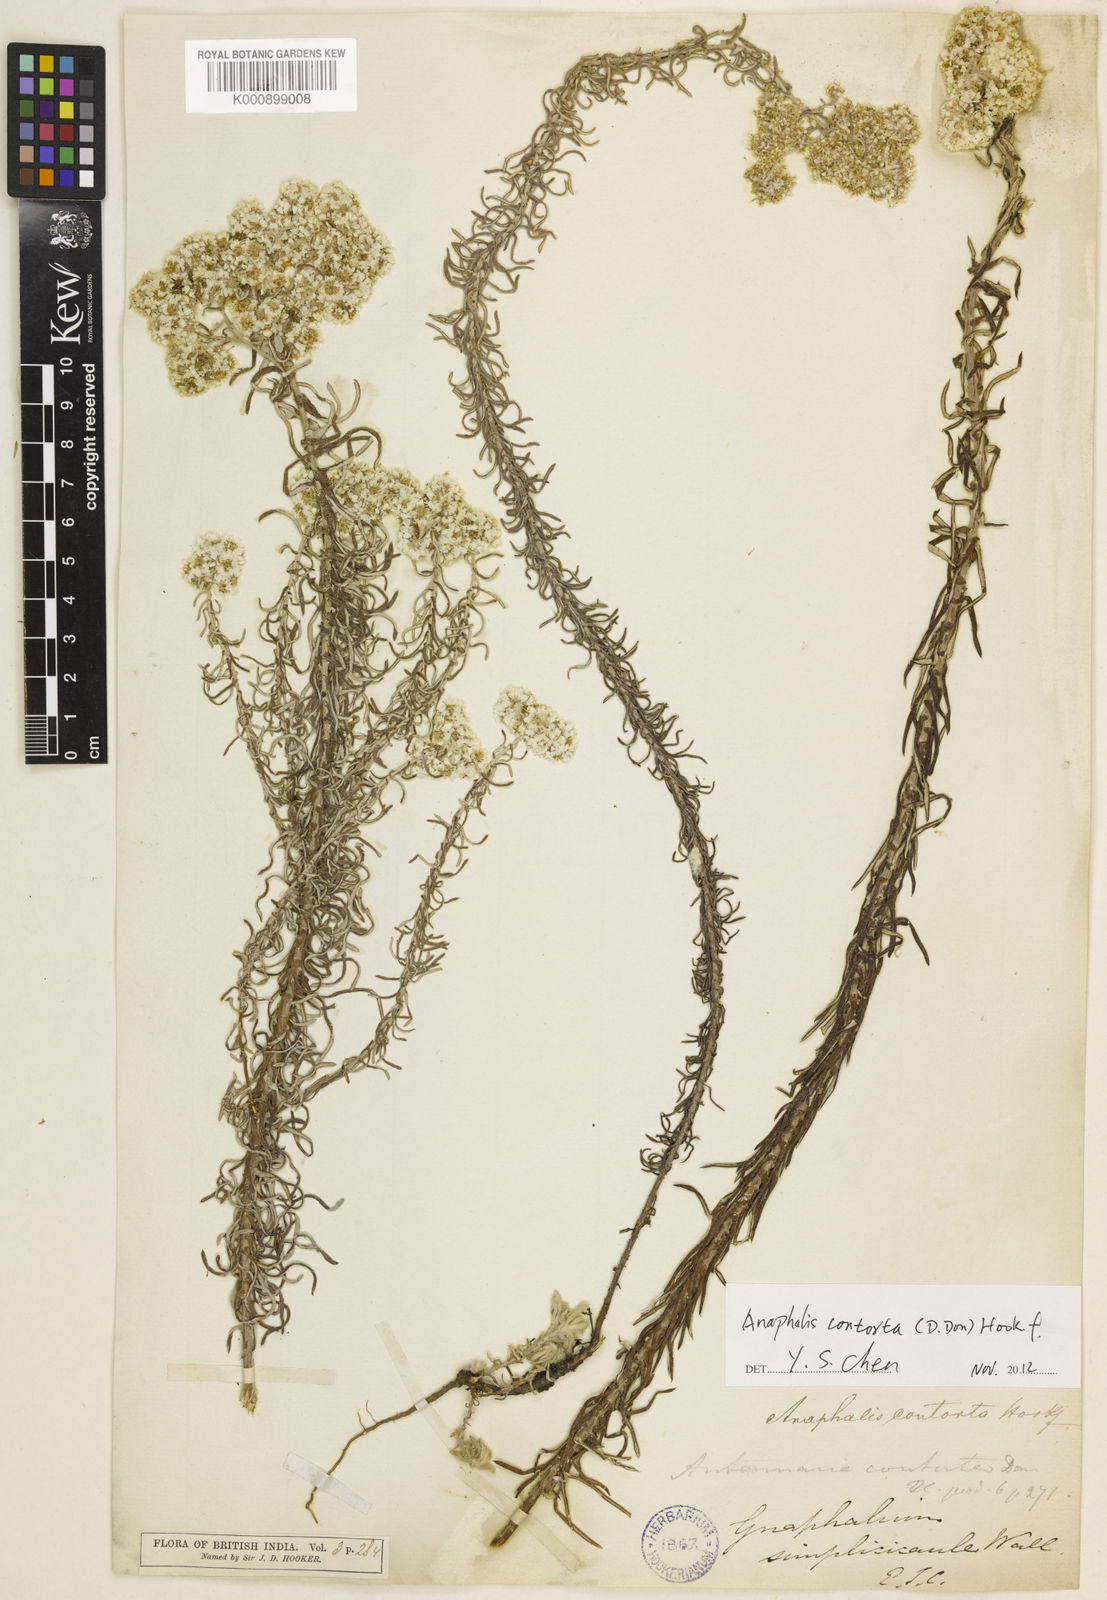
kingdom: Plantae
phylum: Tracheophyta
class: Magnoliopsida
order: Asterales
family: Asteraceae
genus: Anaphalis
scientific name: Anaphalis contorta
